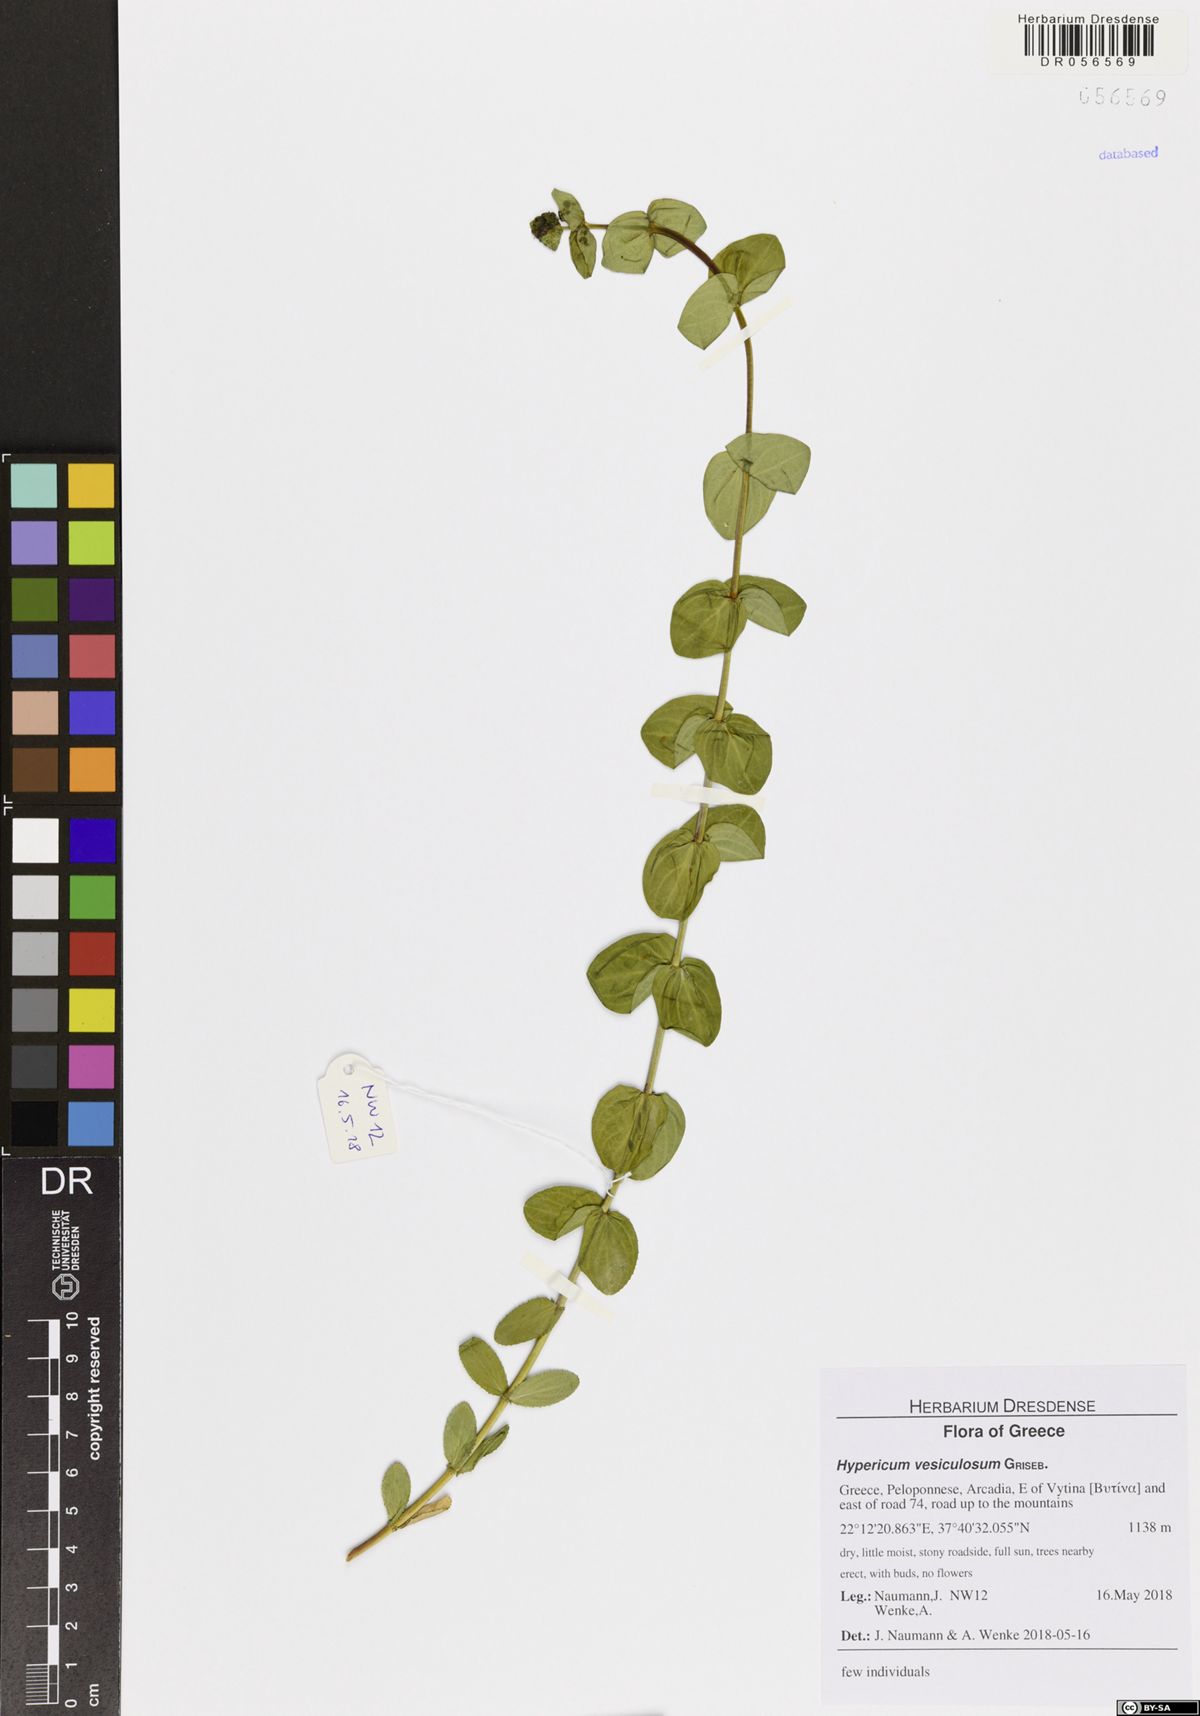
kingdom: Plantae
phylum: Tracheophyta
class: Magnoliopsida
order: Malpighiales
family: Hypericaceae
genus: Hypericum
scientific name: Hypericum vesiculosum
